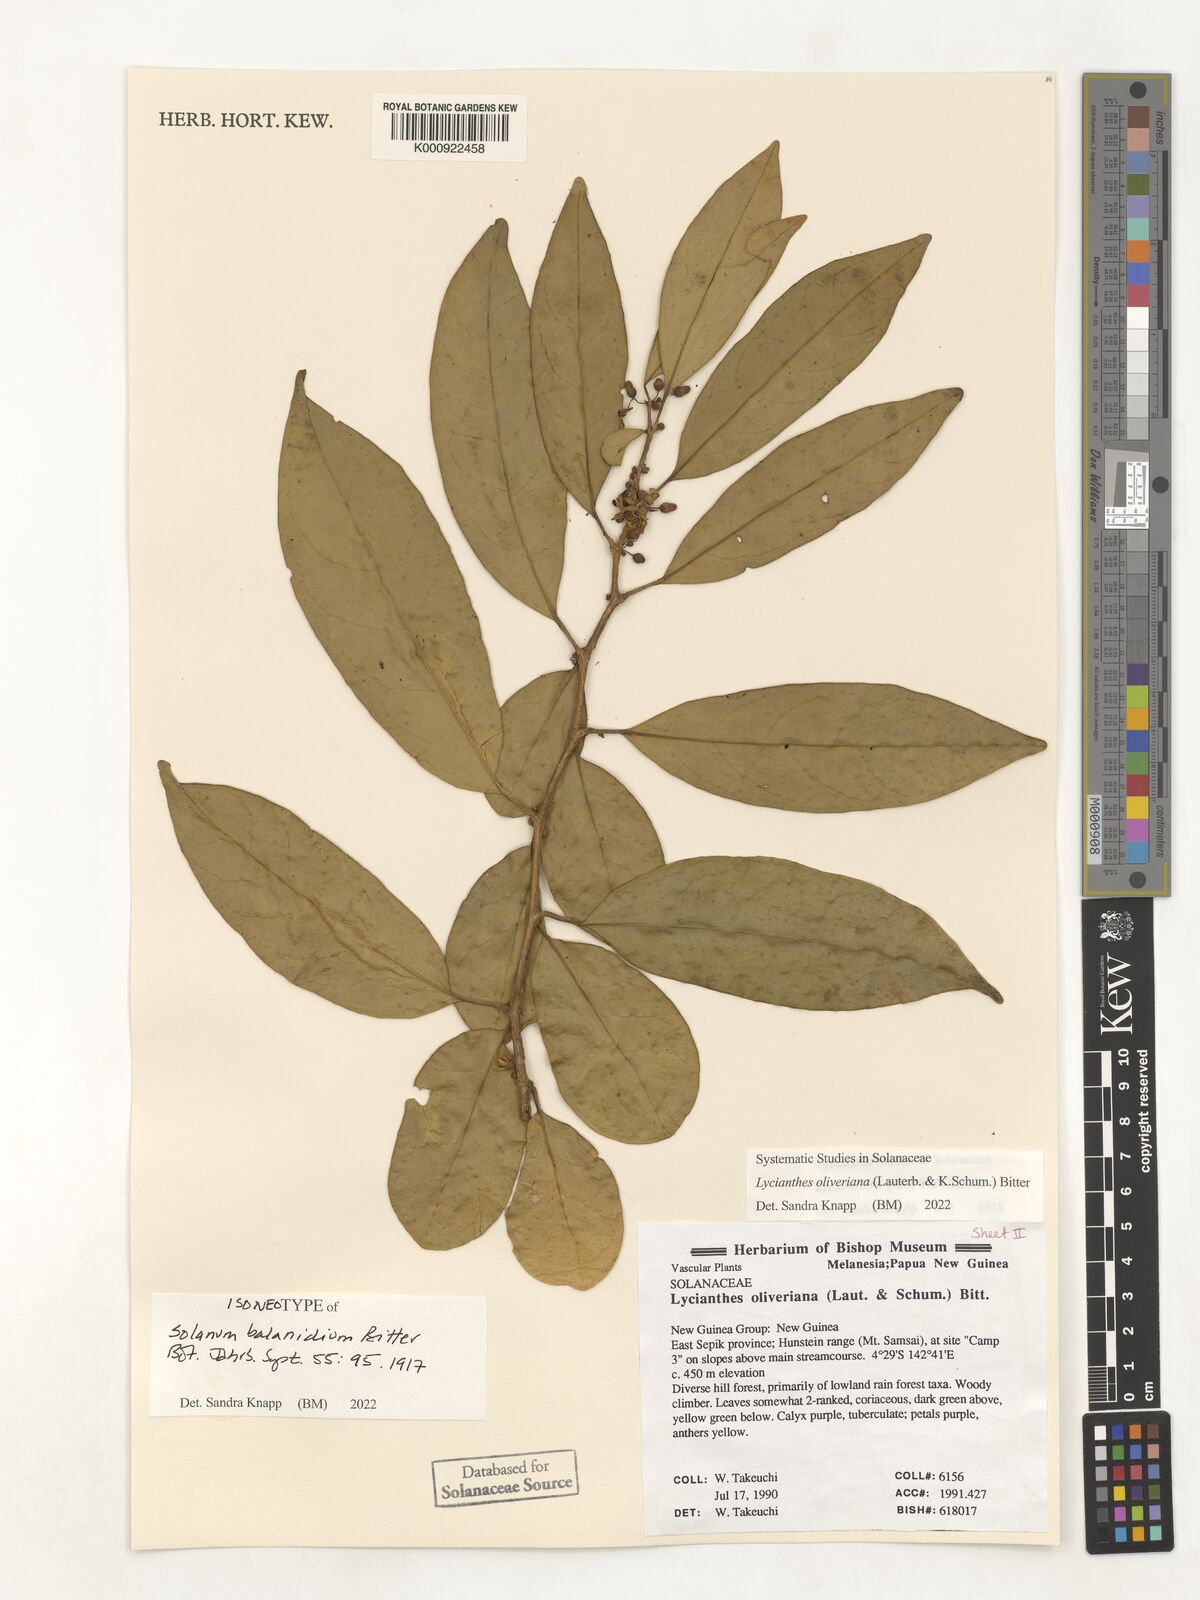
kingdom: Plantae
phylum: Tracheophyta
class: Magnoliopsida
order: Solanales
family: Solanaceae
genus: Lycianthes
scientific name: Lycianthes oliveriana
